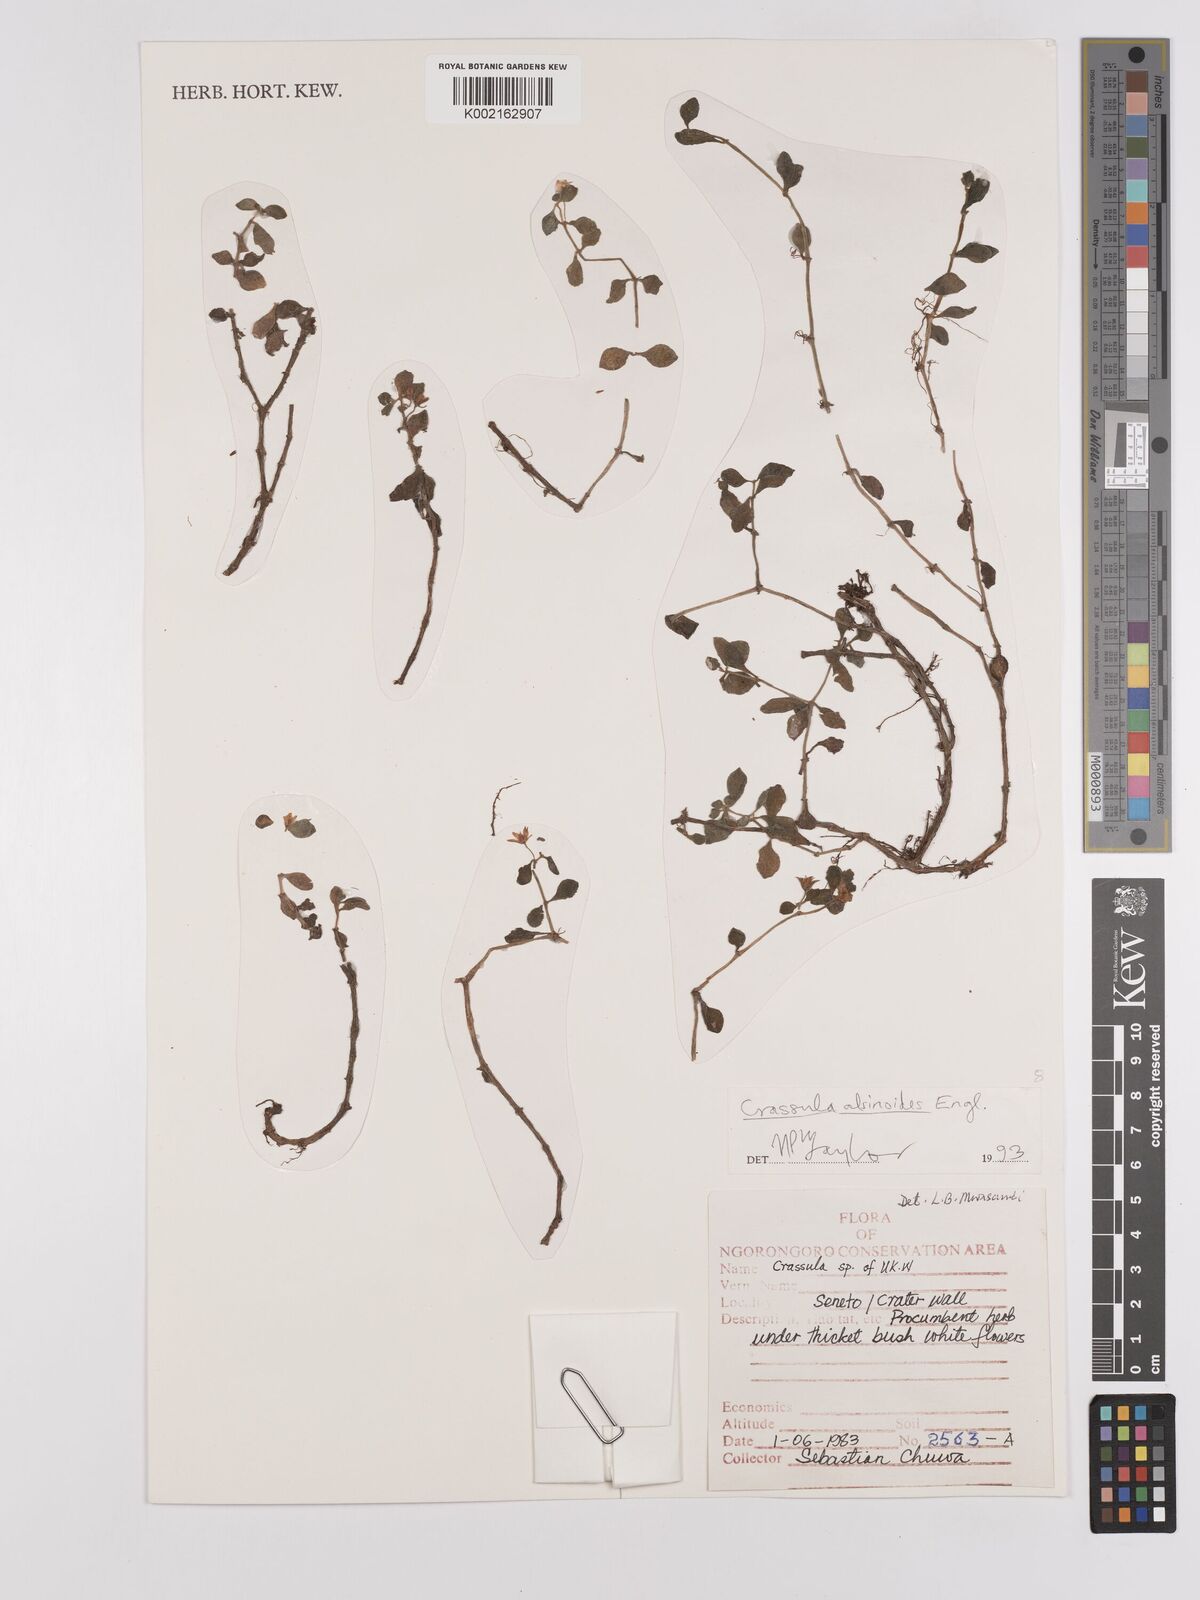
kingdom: Plantae
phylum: Tracheophyta
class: Magnoliopsida
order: Saxifragales
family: Crassulaceae
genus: Crassula
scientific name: Crassula alsinoides
